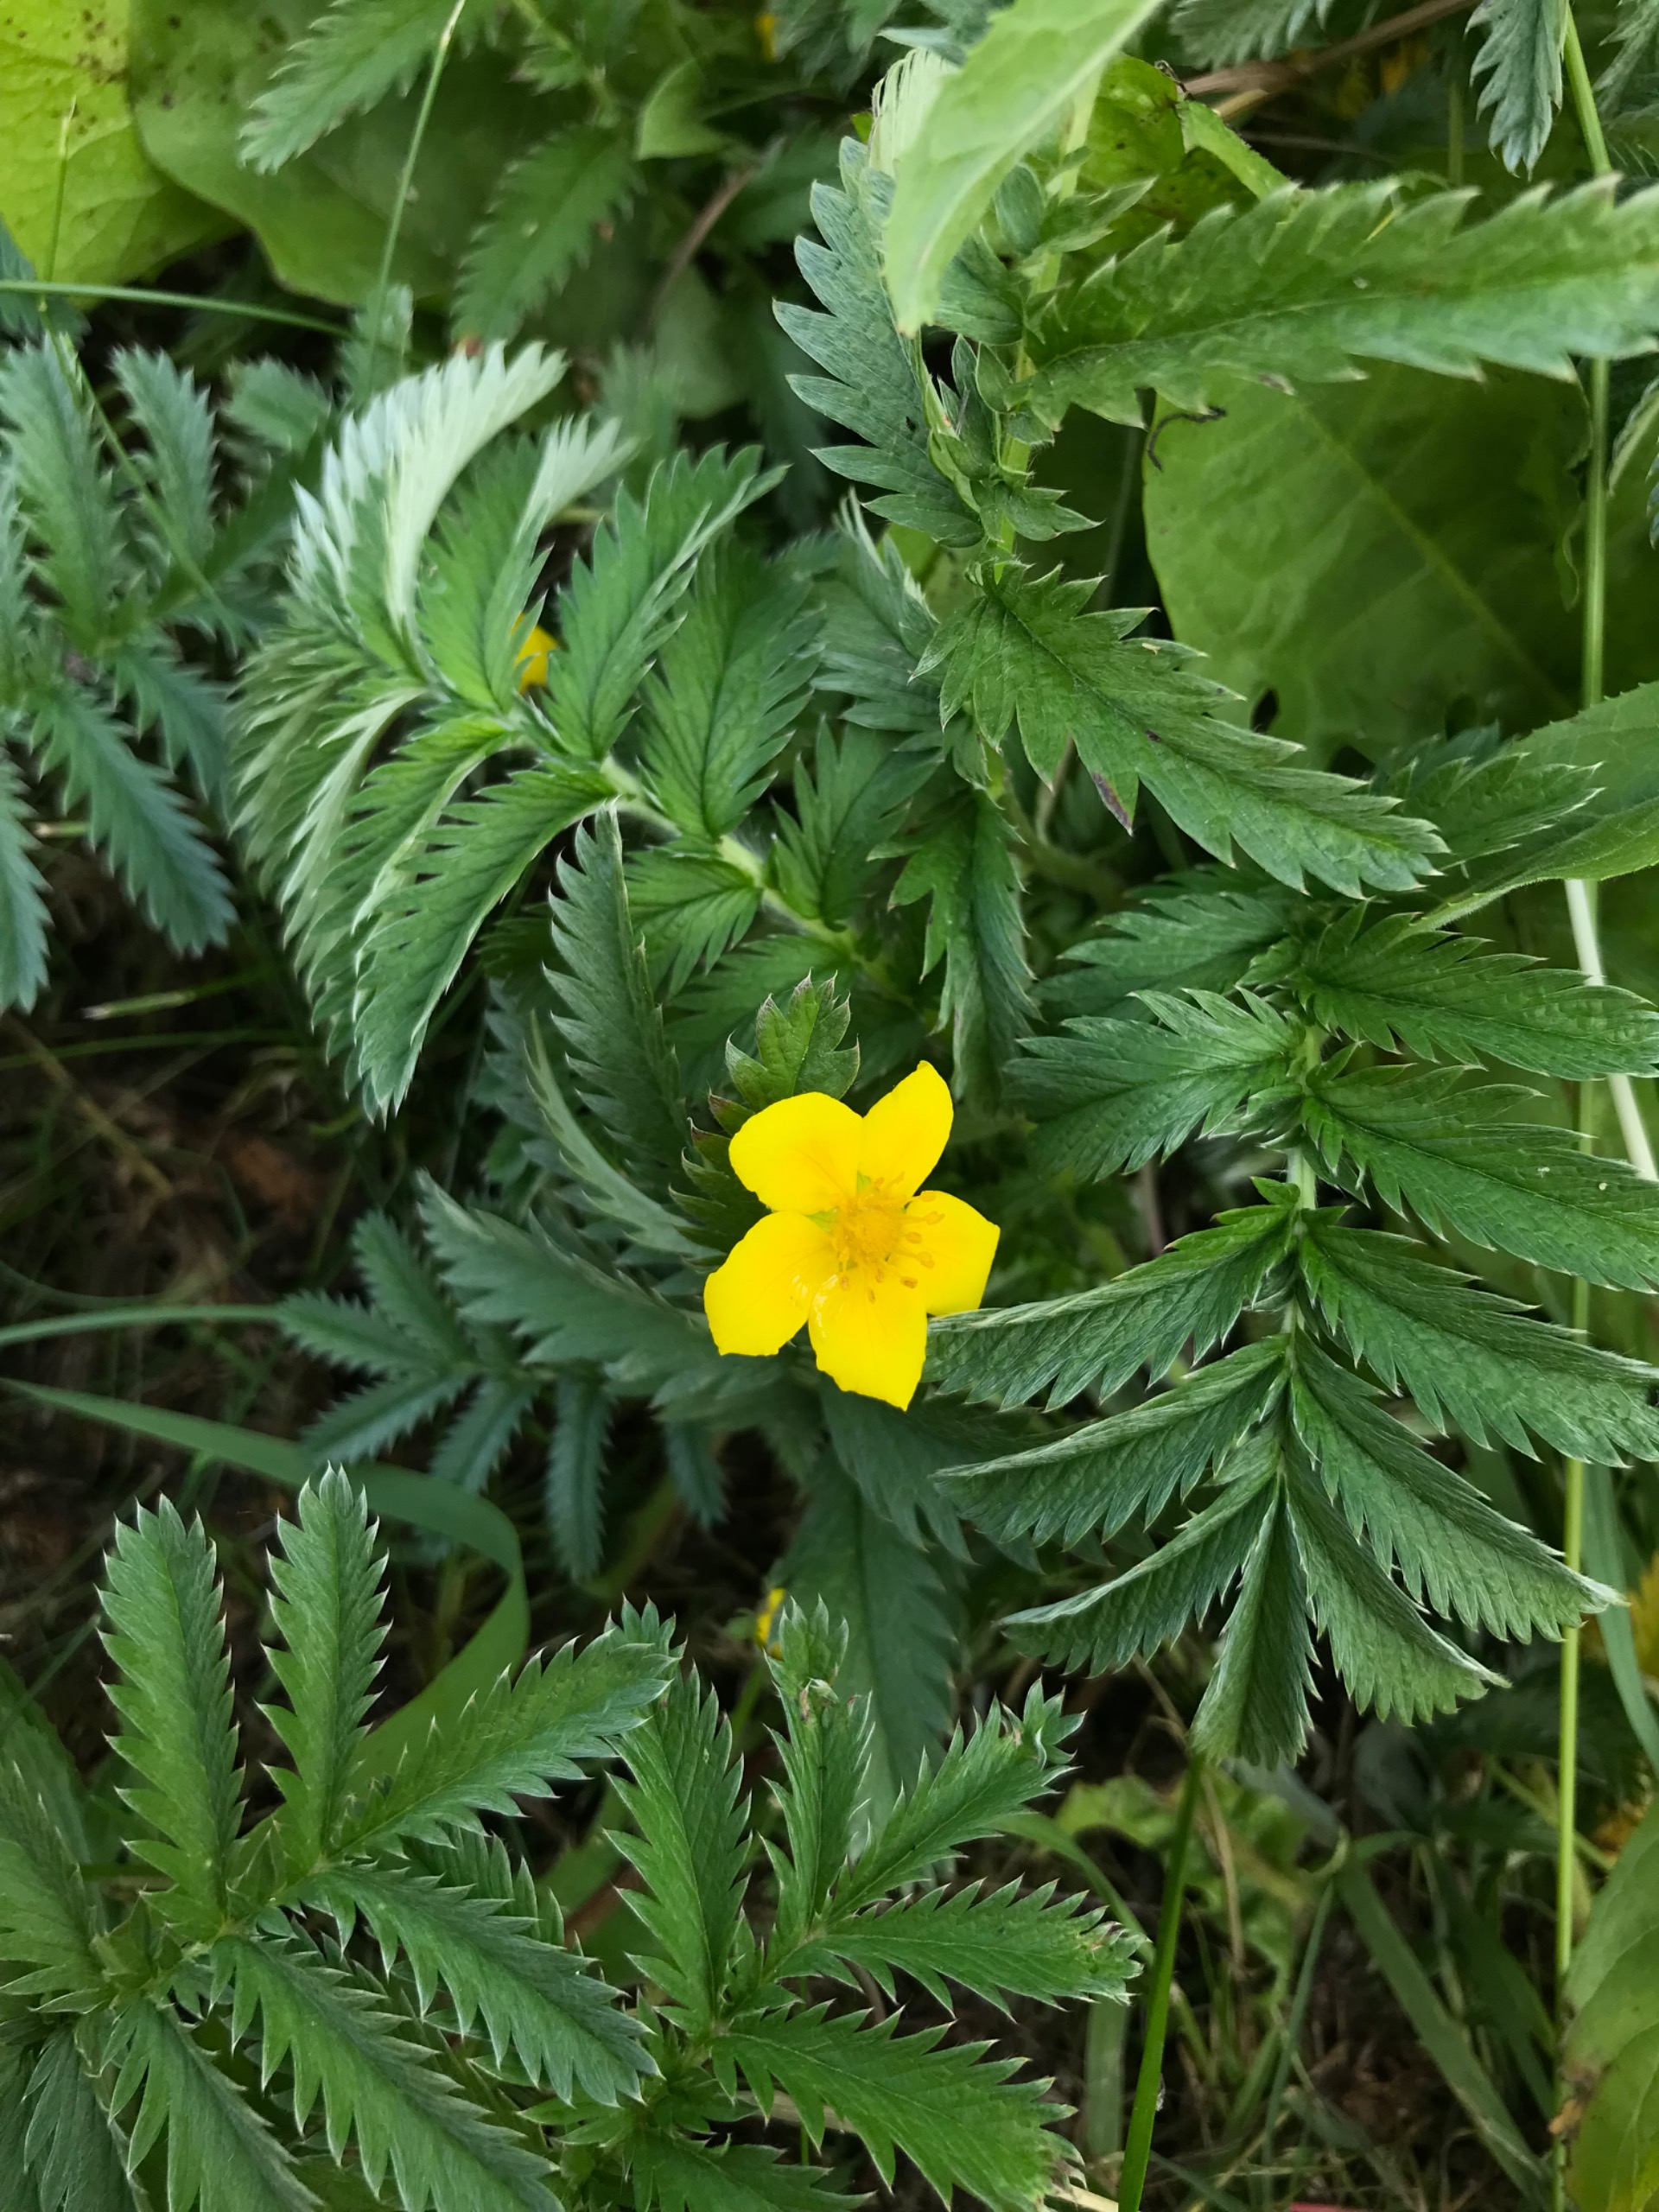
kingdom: Plantae
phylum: Tracheophyta
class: Magnoliopsida
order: Rosales
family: Rosaceae
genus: Argentina
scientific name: Argentina anserina
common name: Gåsepotentil
